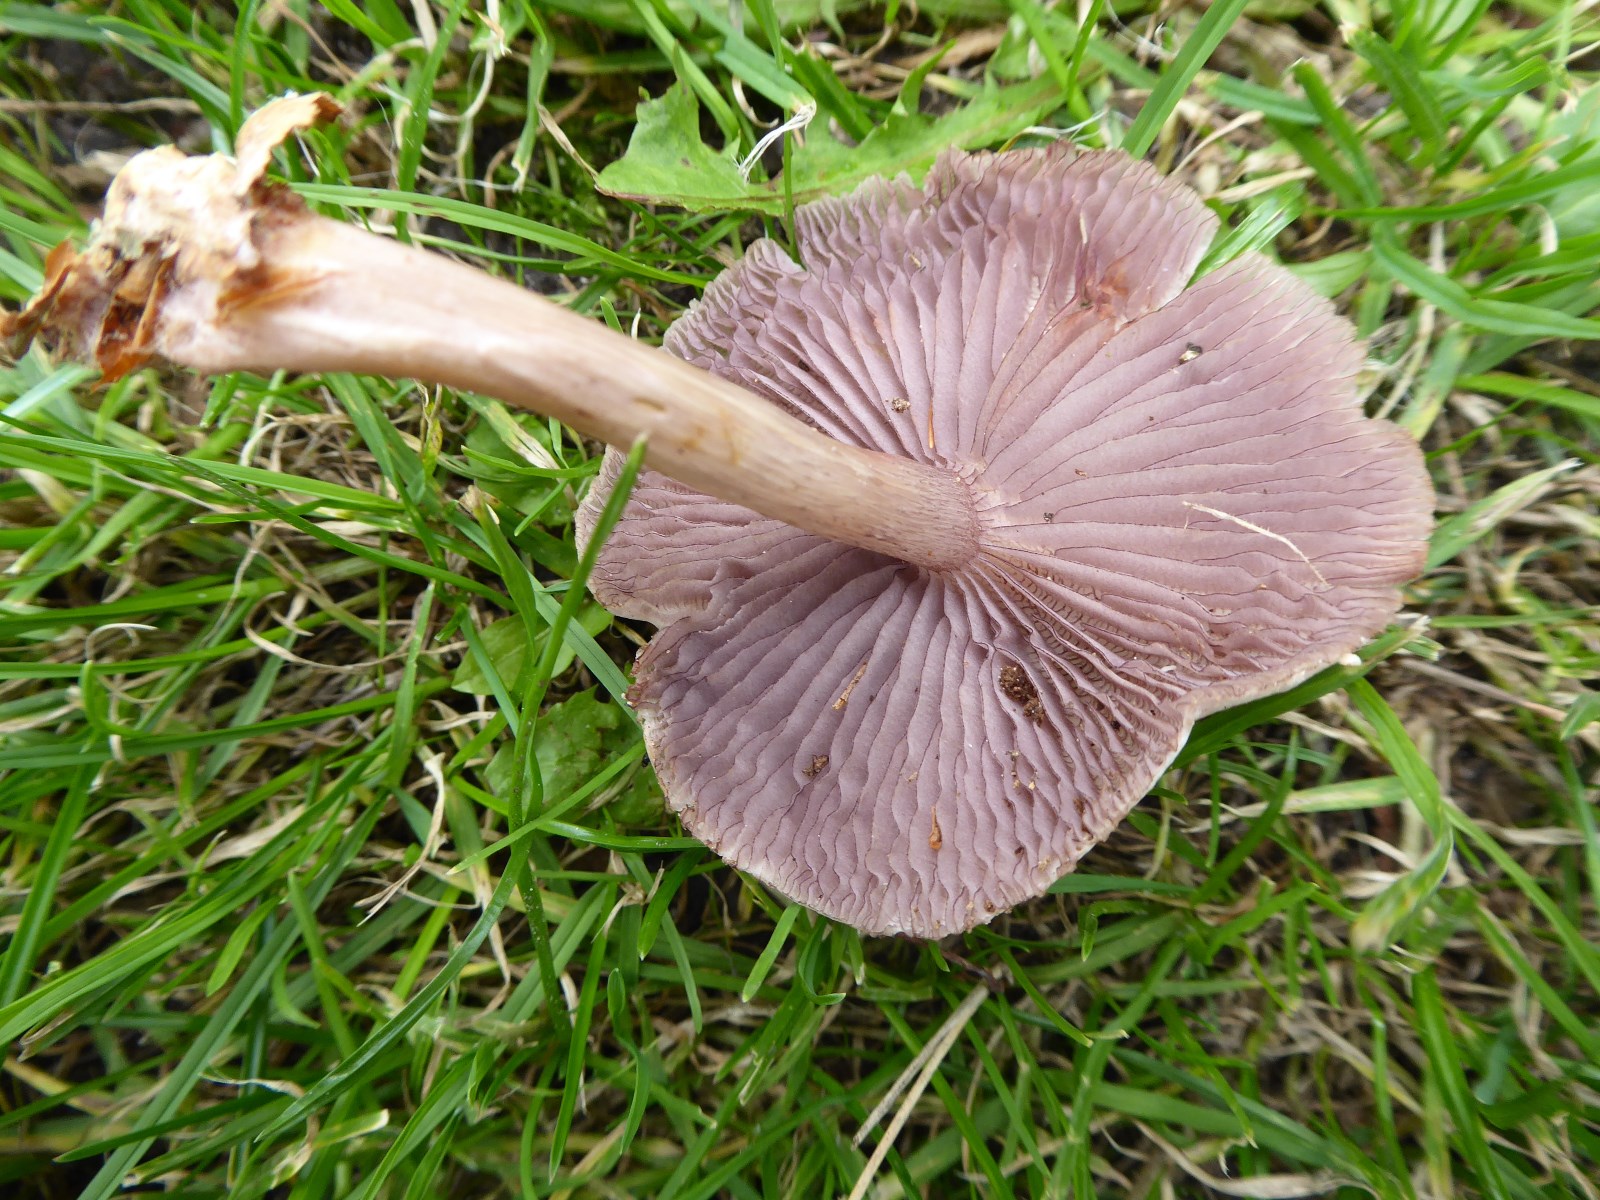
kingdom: Fungi
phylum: Basidiomycota
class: Agaricomycetes
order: Agaricales
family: Mycenaceae
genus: Mycena
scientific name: Mycena pelianthina
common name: mørkbladet huesvamp
